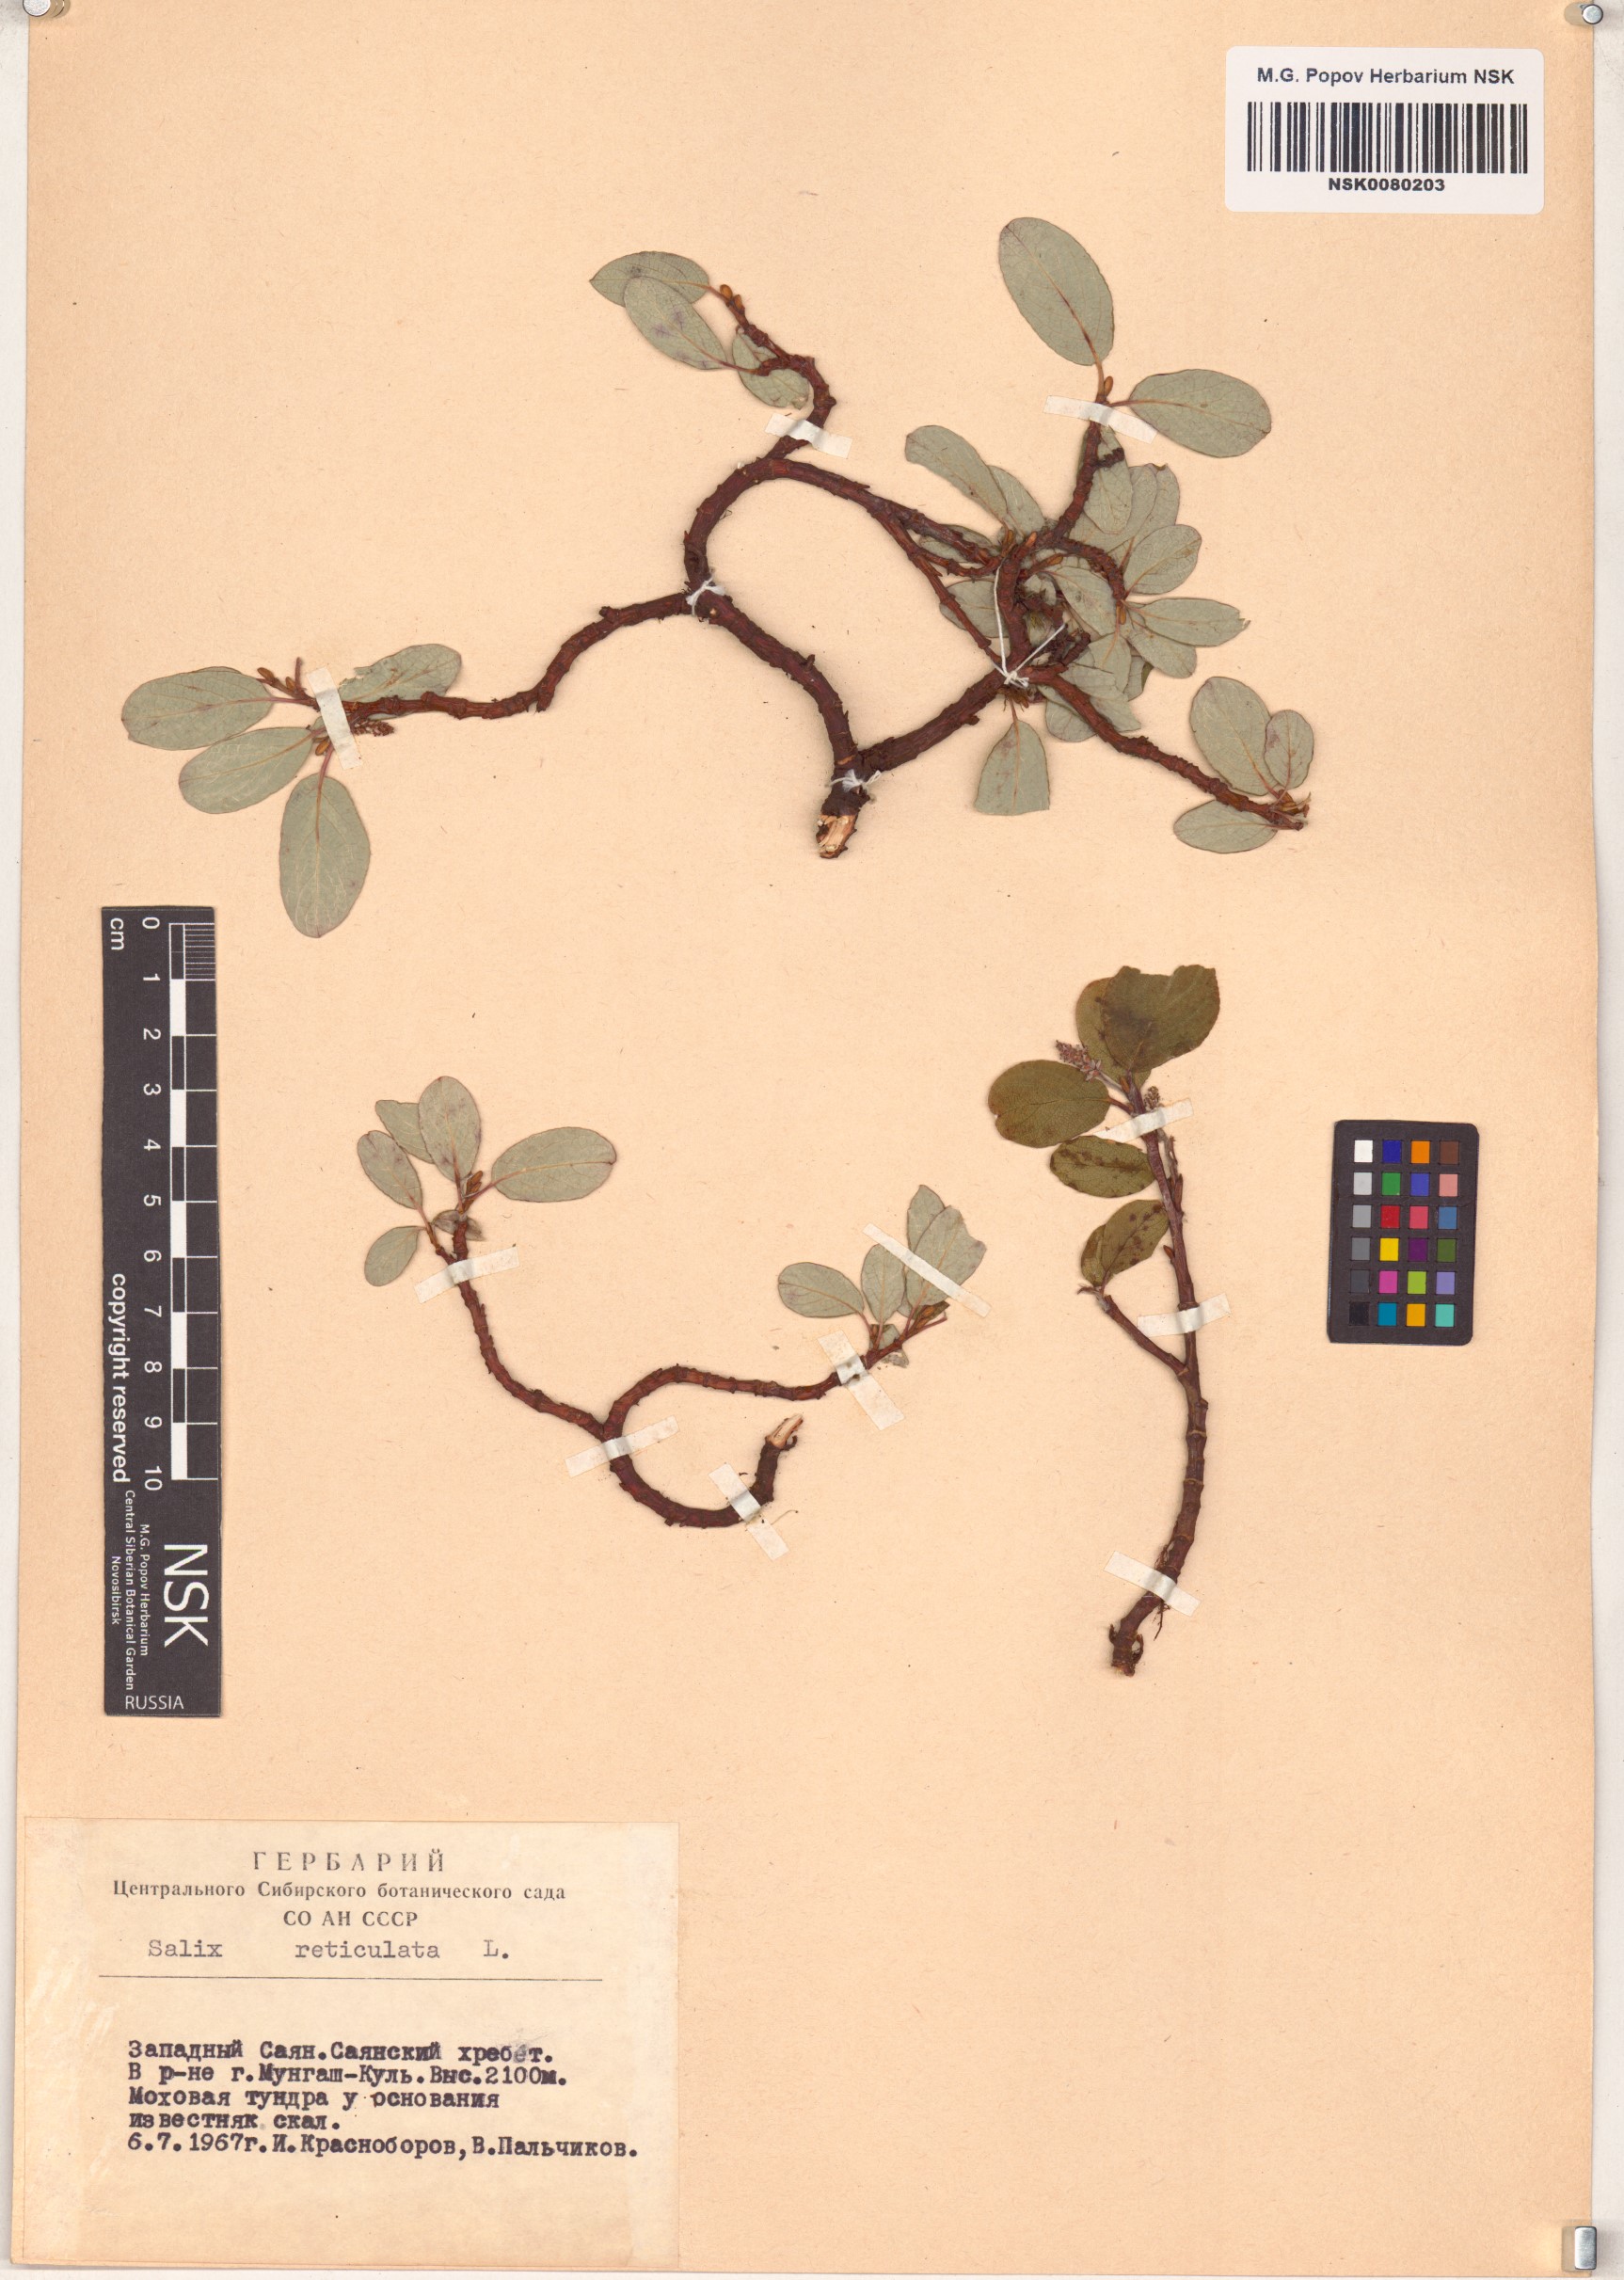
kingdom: Plantae
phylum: Tracheophyta
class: Magnoliopsida
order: Malpighiales
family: Salicaceae
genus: Salix
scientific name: Salix reticulata
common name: Net-leaved willow
